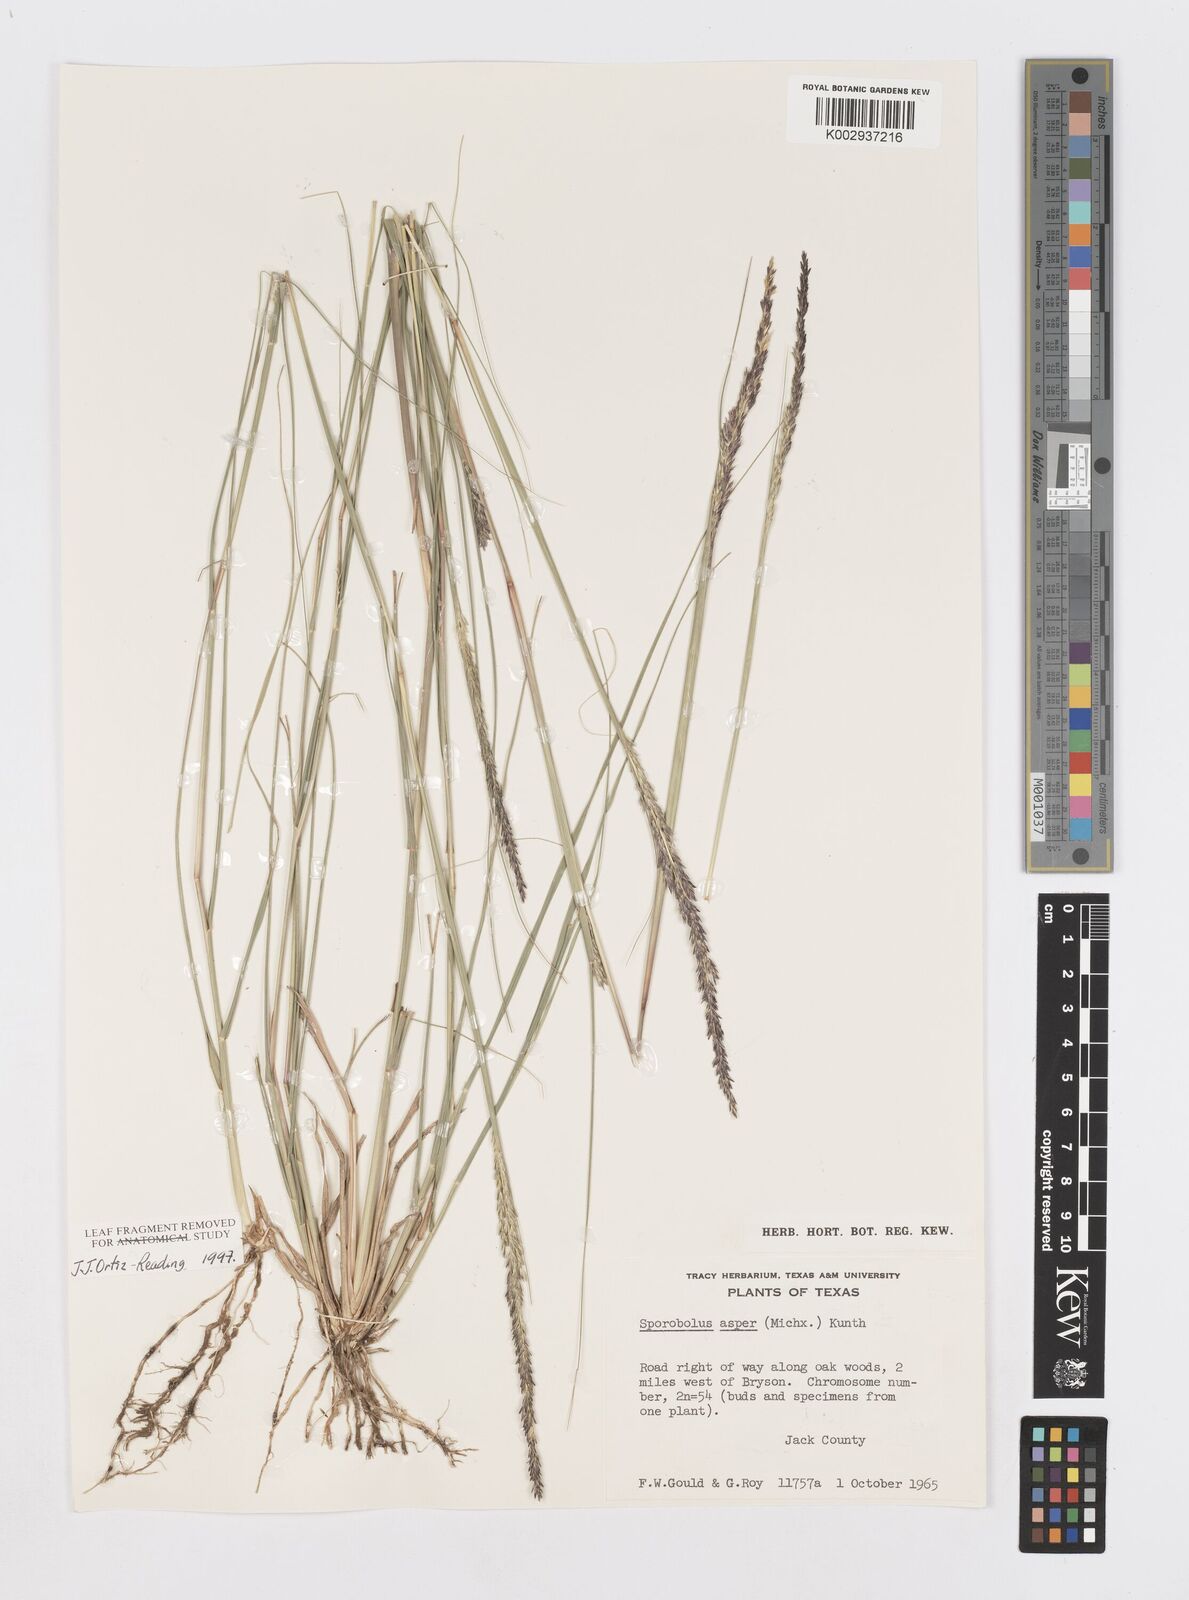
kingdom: Plantae
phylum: Tracheophyta
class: Liliopsida
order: Poales
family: Poaceae
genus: Sporobolus
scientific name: Sporobolus compositus
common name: Rough dropseed
